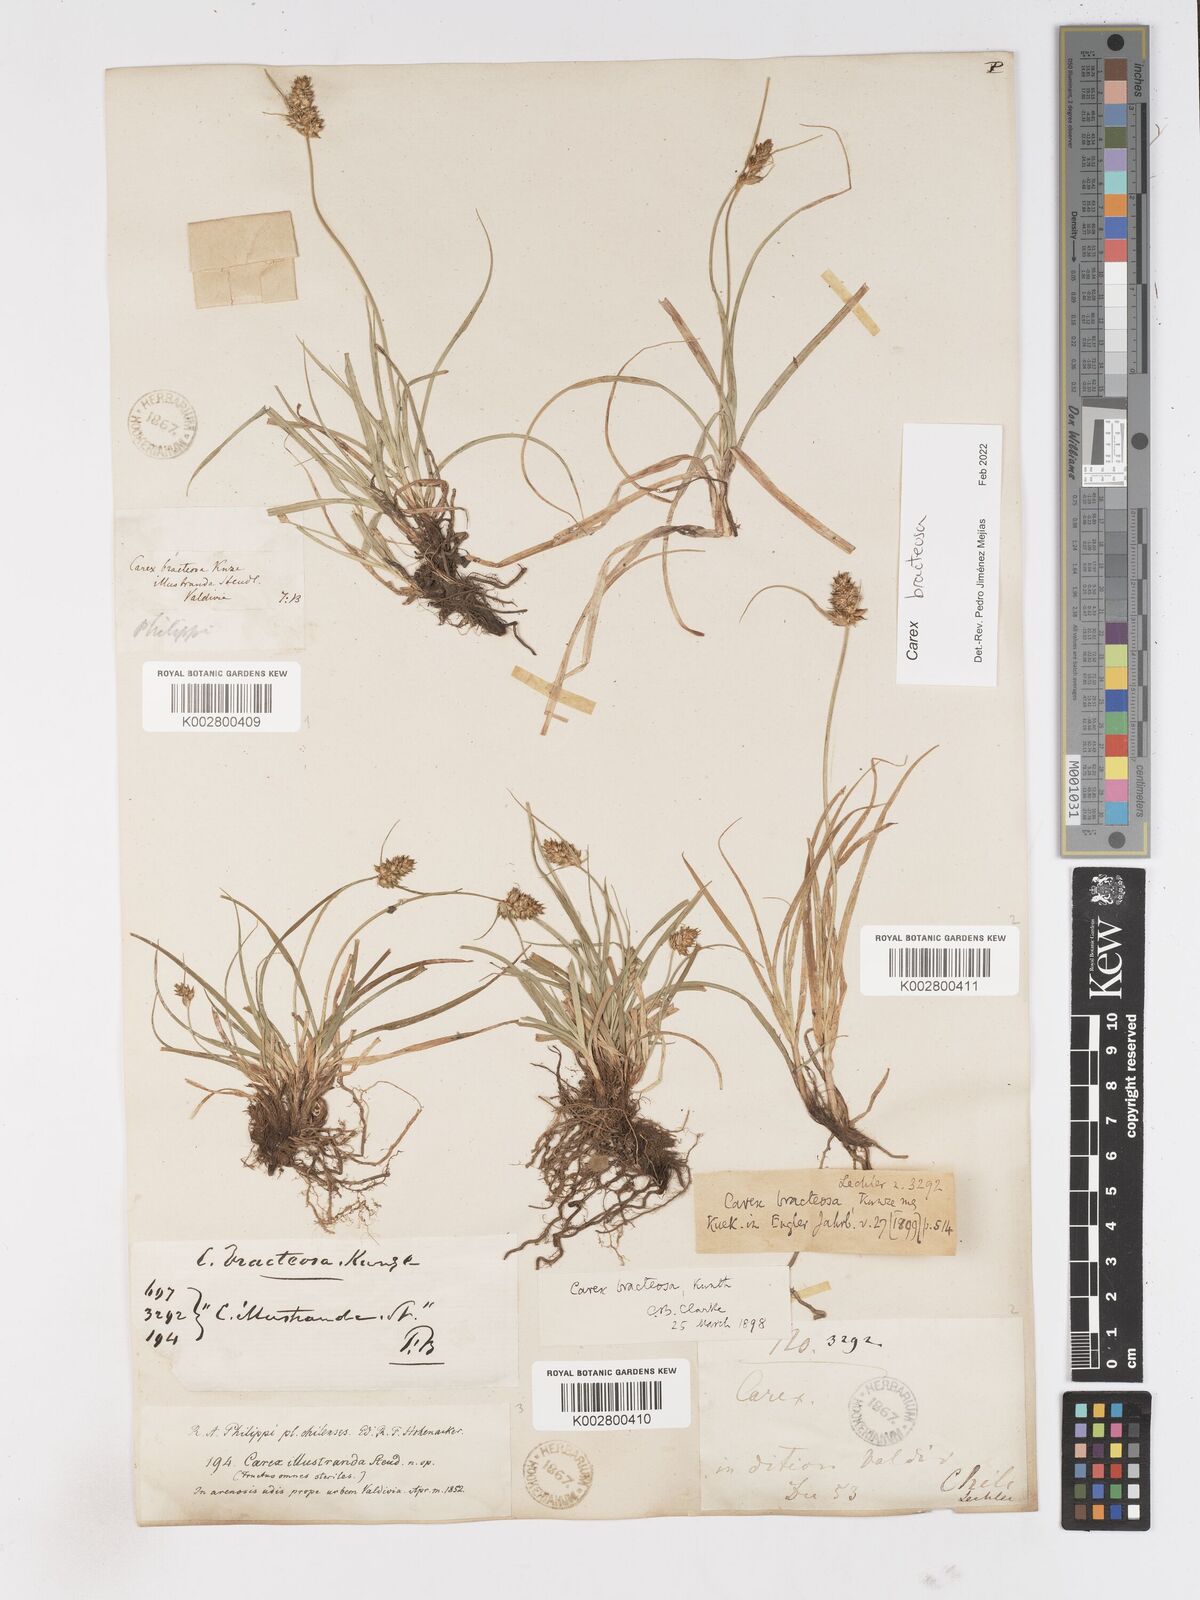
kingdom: Plantae
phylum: Tracheophyta
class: Liliopsida
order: Poales
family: Cyperaceae
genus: Carex
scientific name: Carex bracteosa
